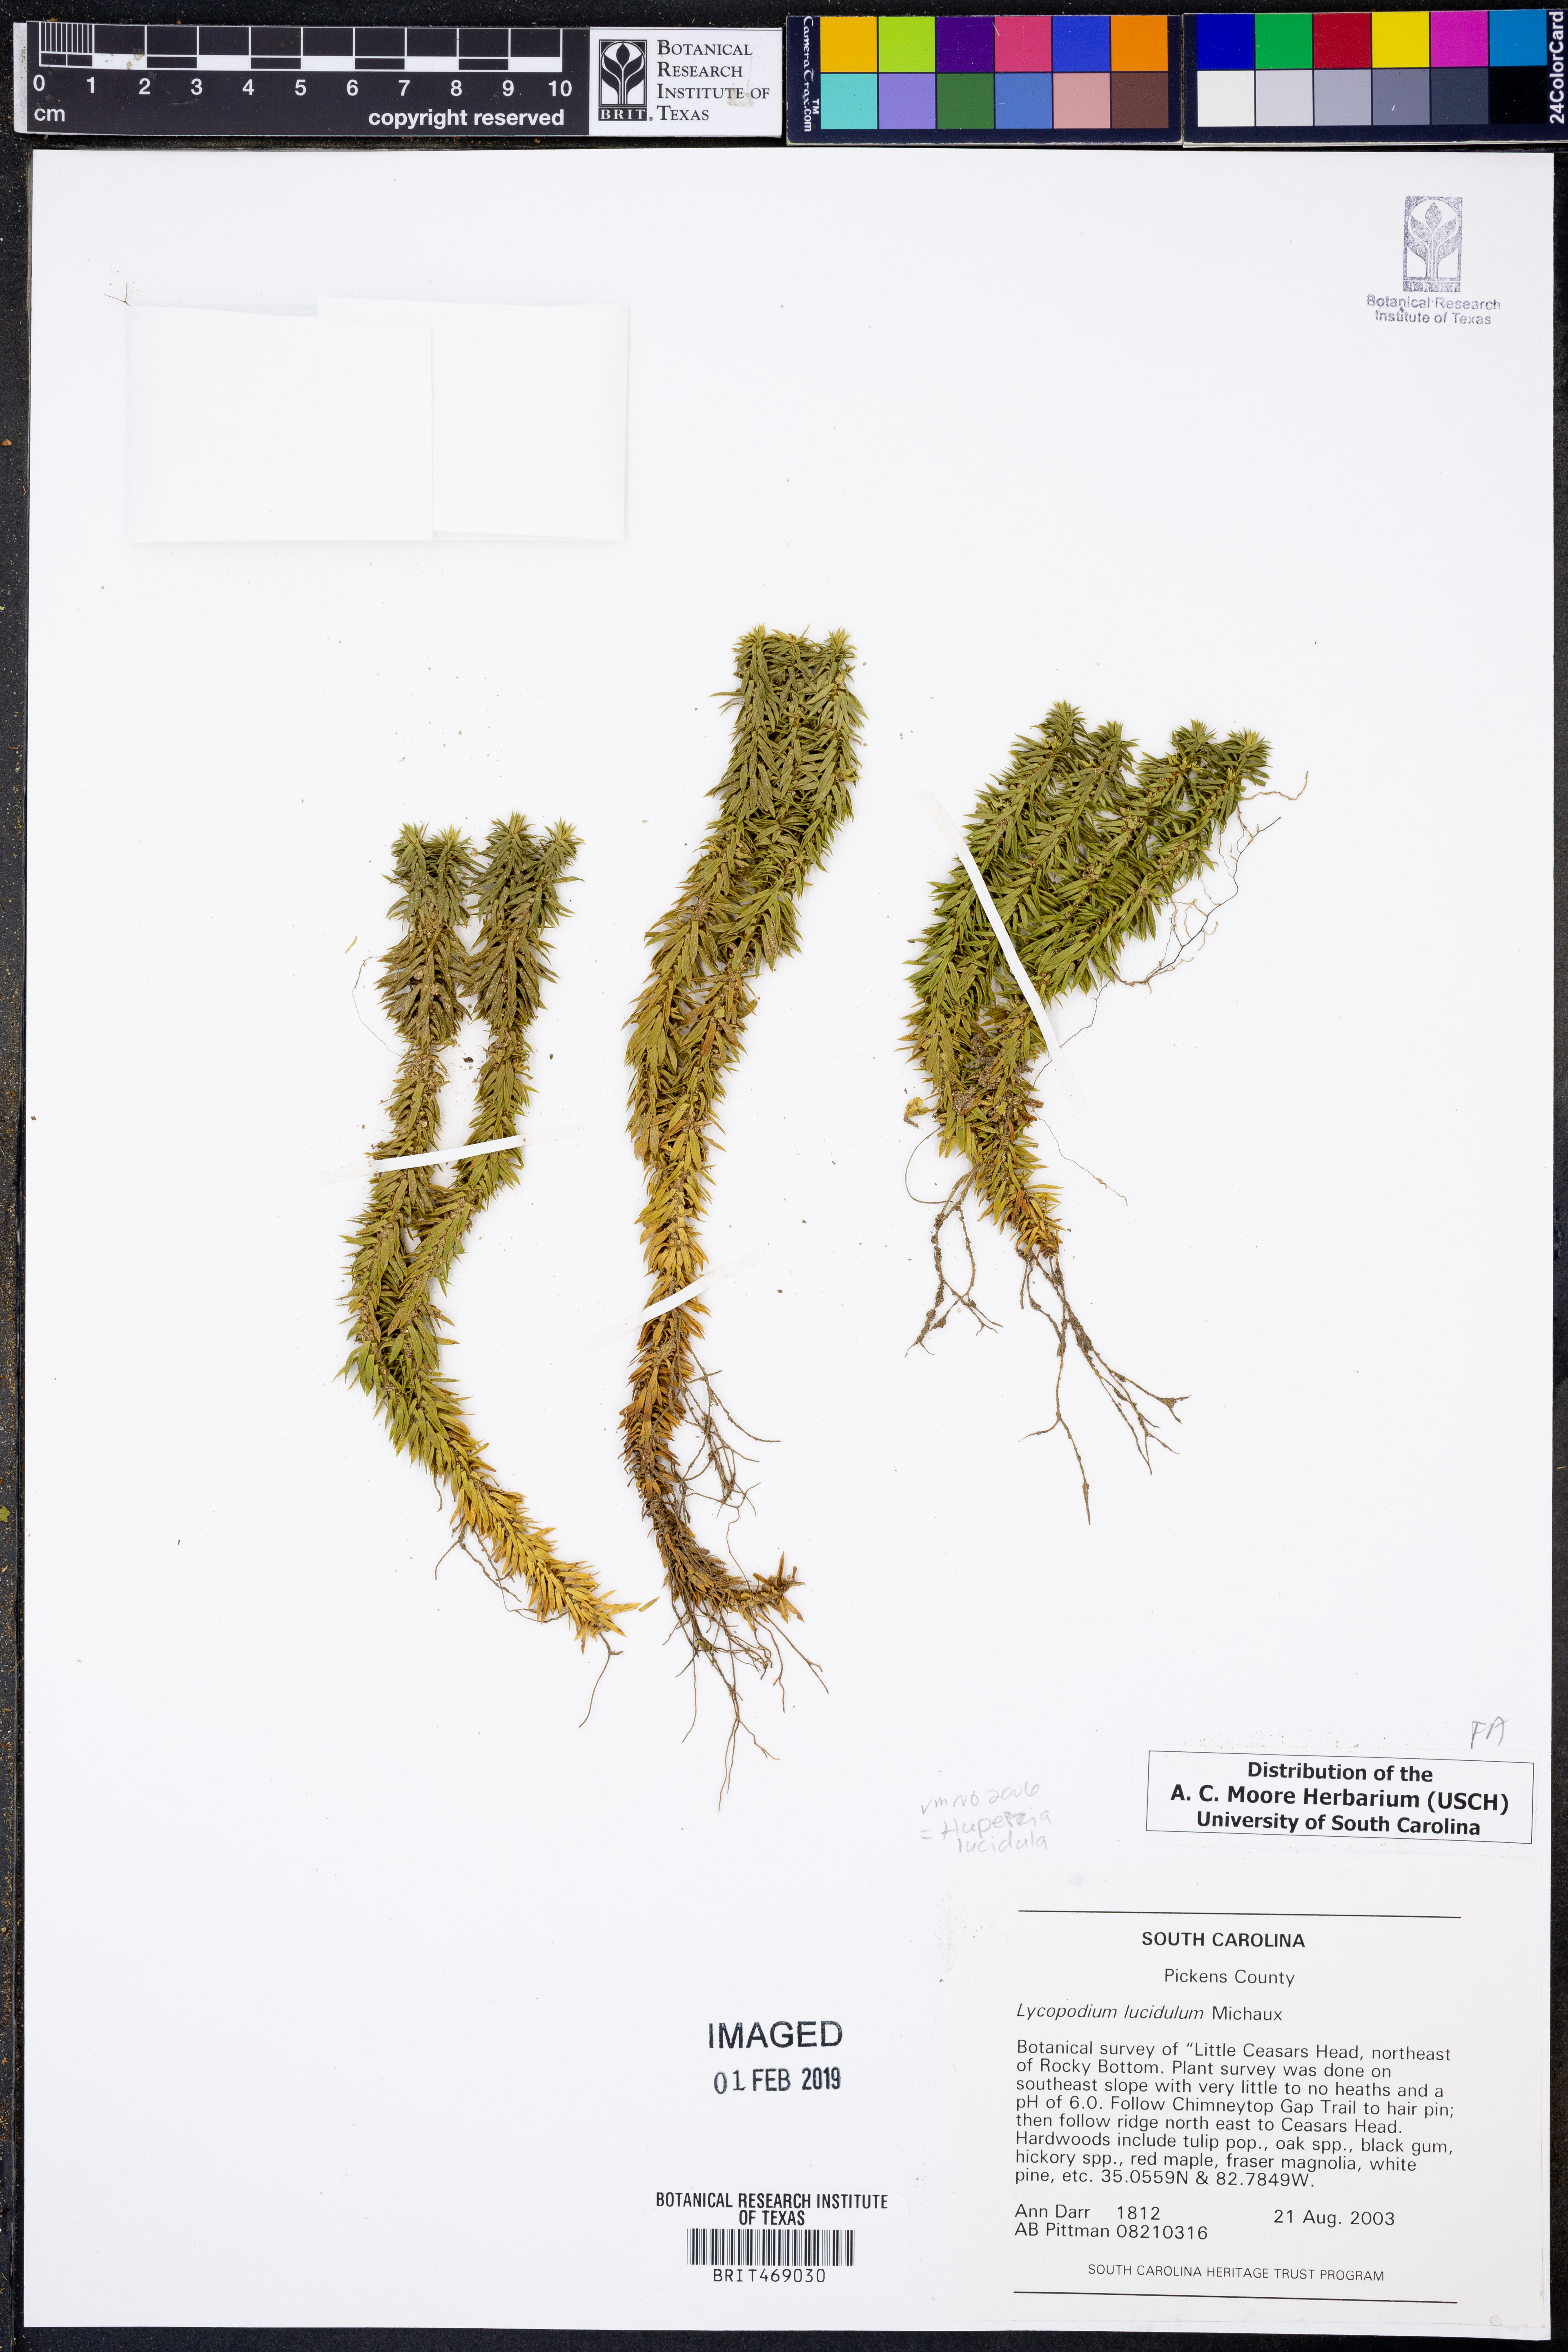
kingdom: Plantae
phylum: Tracheophyta
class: Lycopodiopsida
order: Lycopodiales
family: Lycopodiaceae
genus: Huperzia
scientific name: Huperzia lucidula
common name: Shining clubmoss
